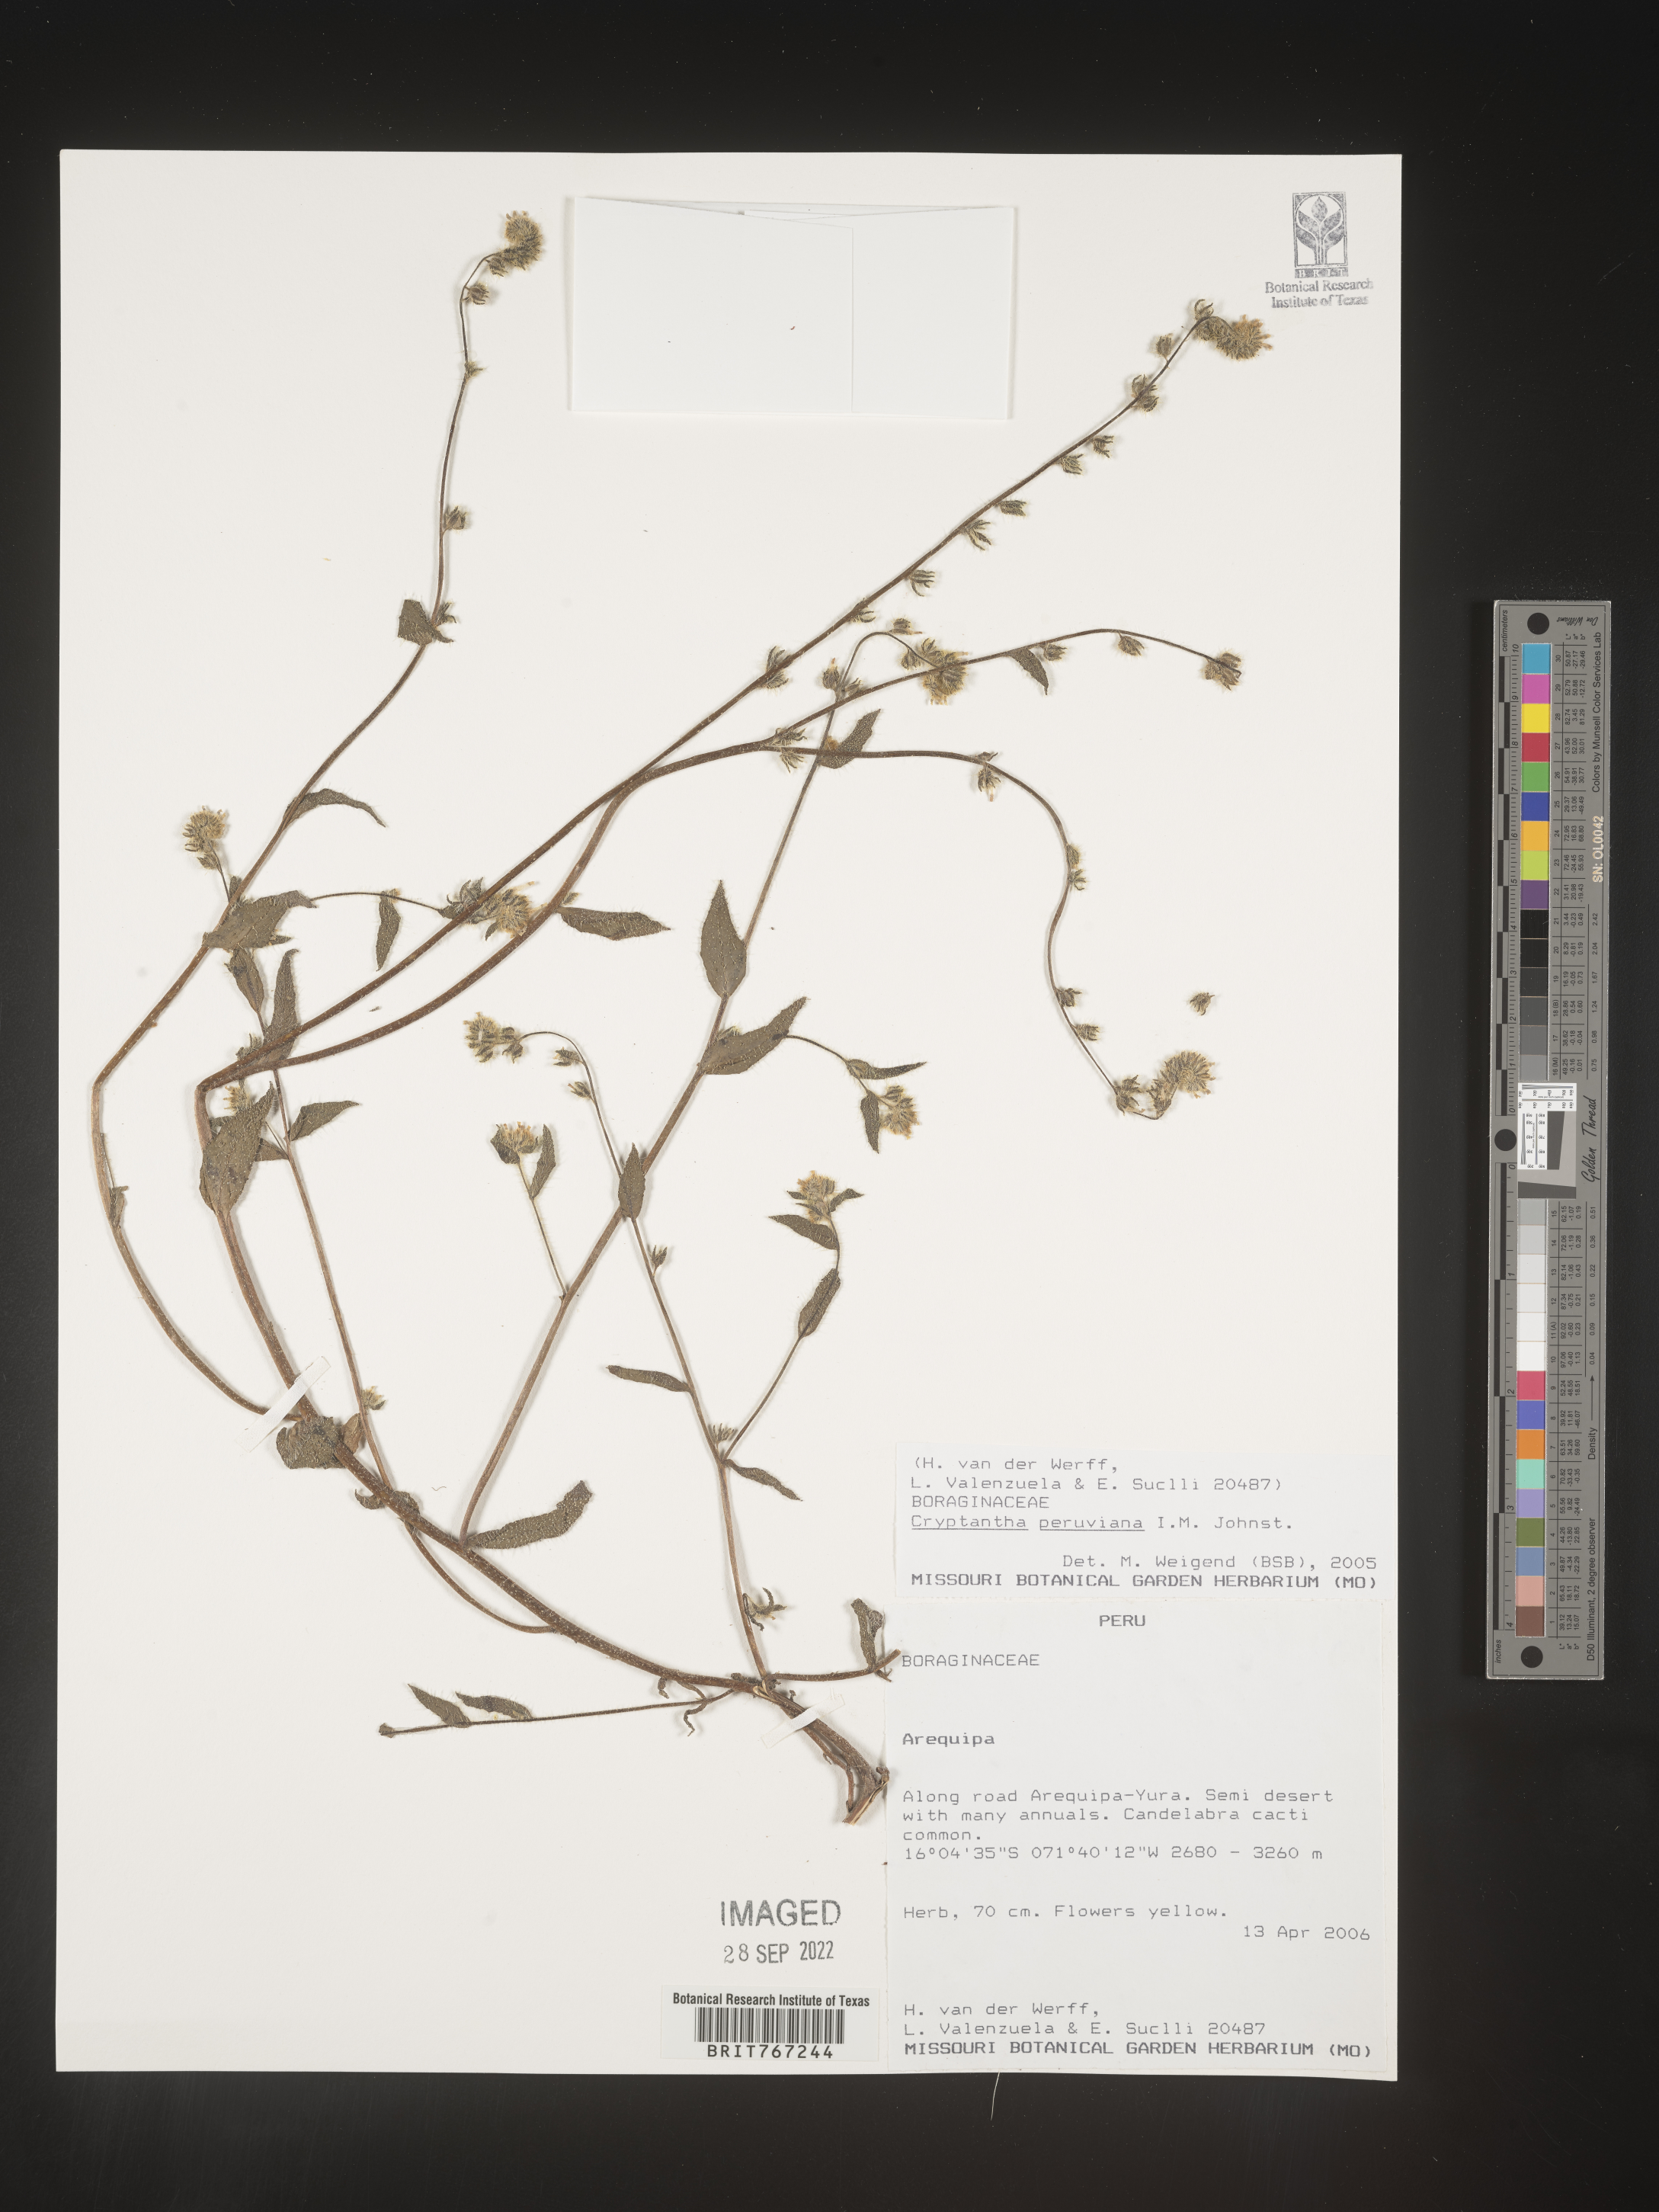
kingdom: Plantae
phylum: Tracheophyta
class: Magnoliopsida
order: Boraginales
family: Boraginaceae
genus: Cryptantha
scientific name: Cryptantha
